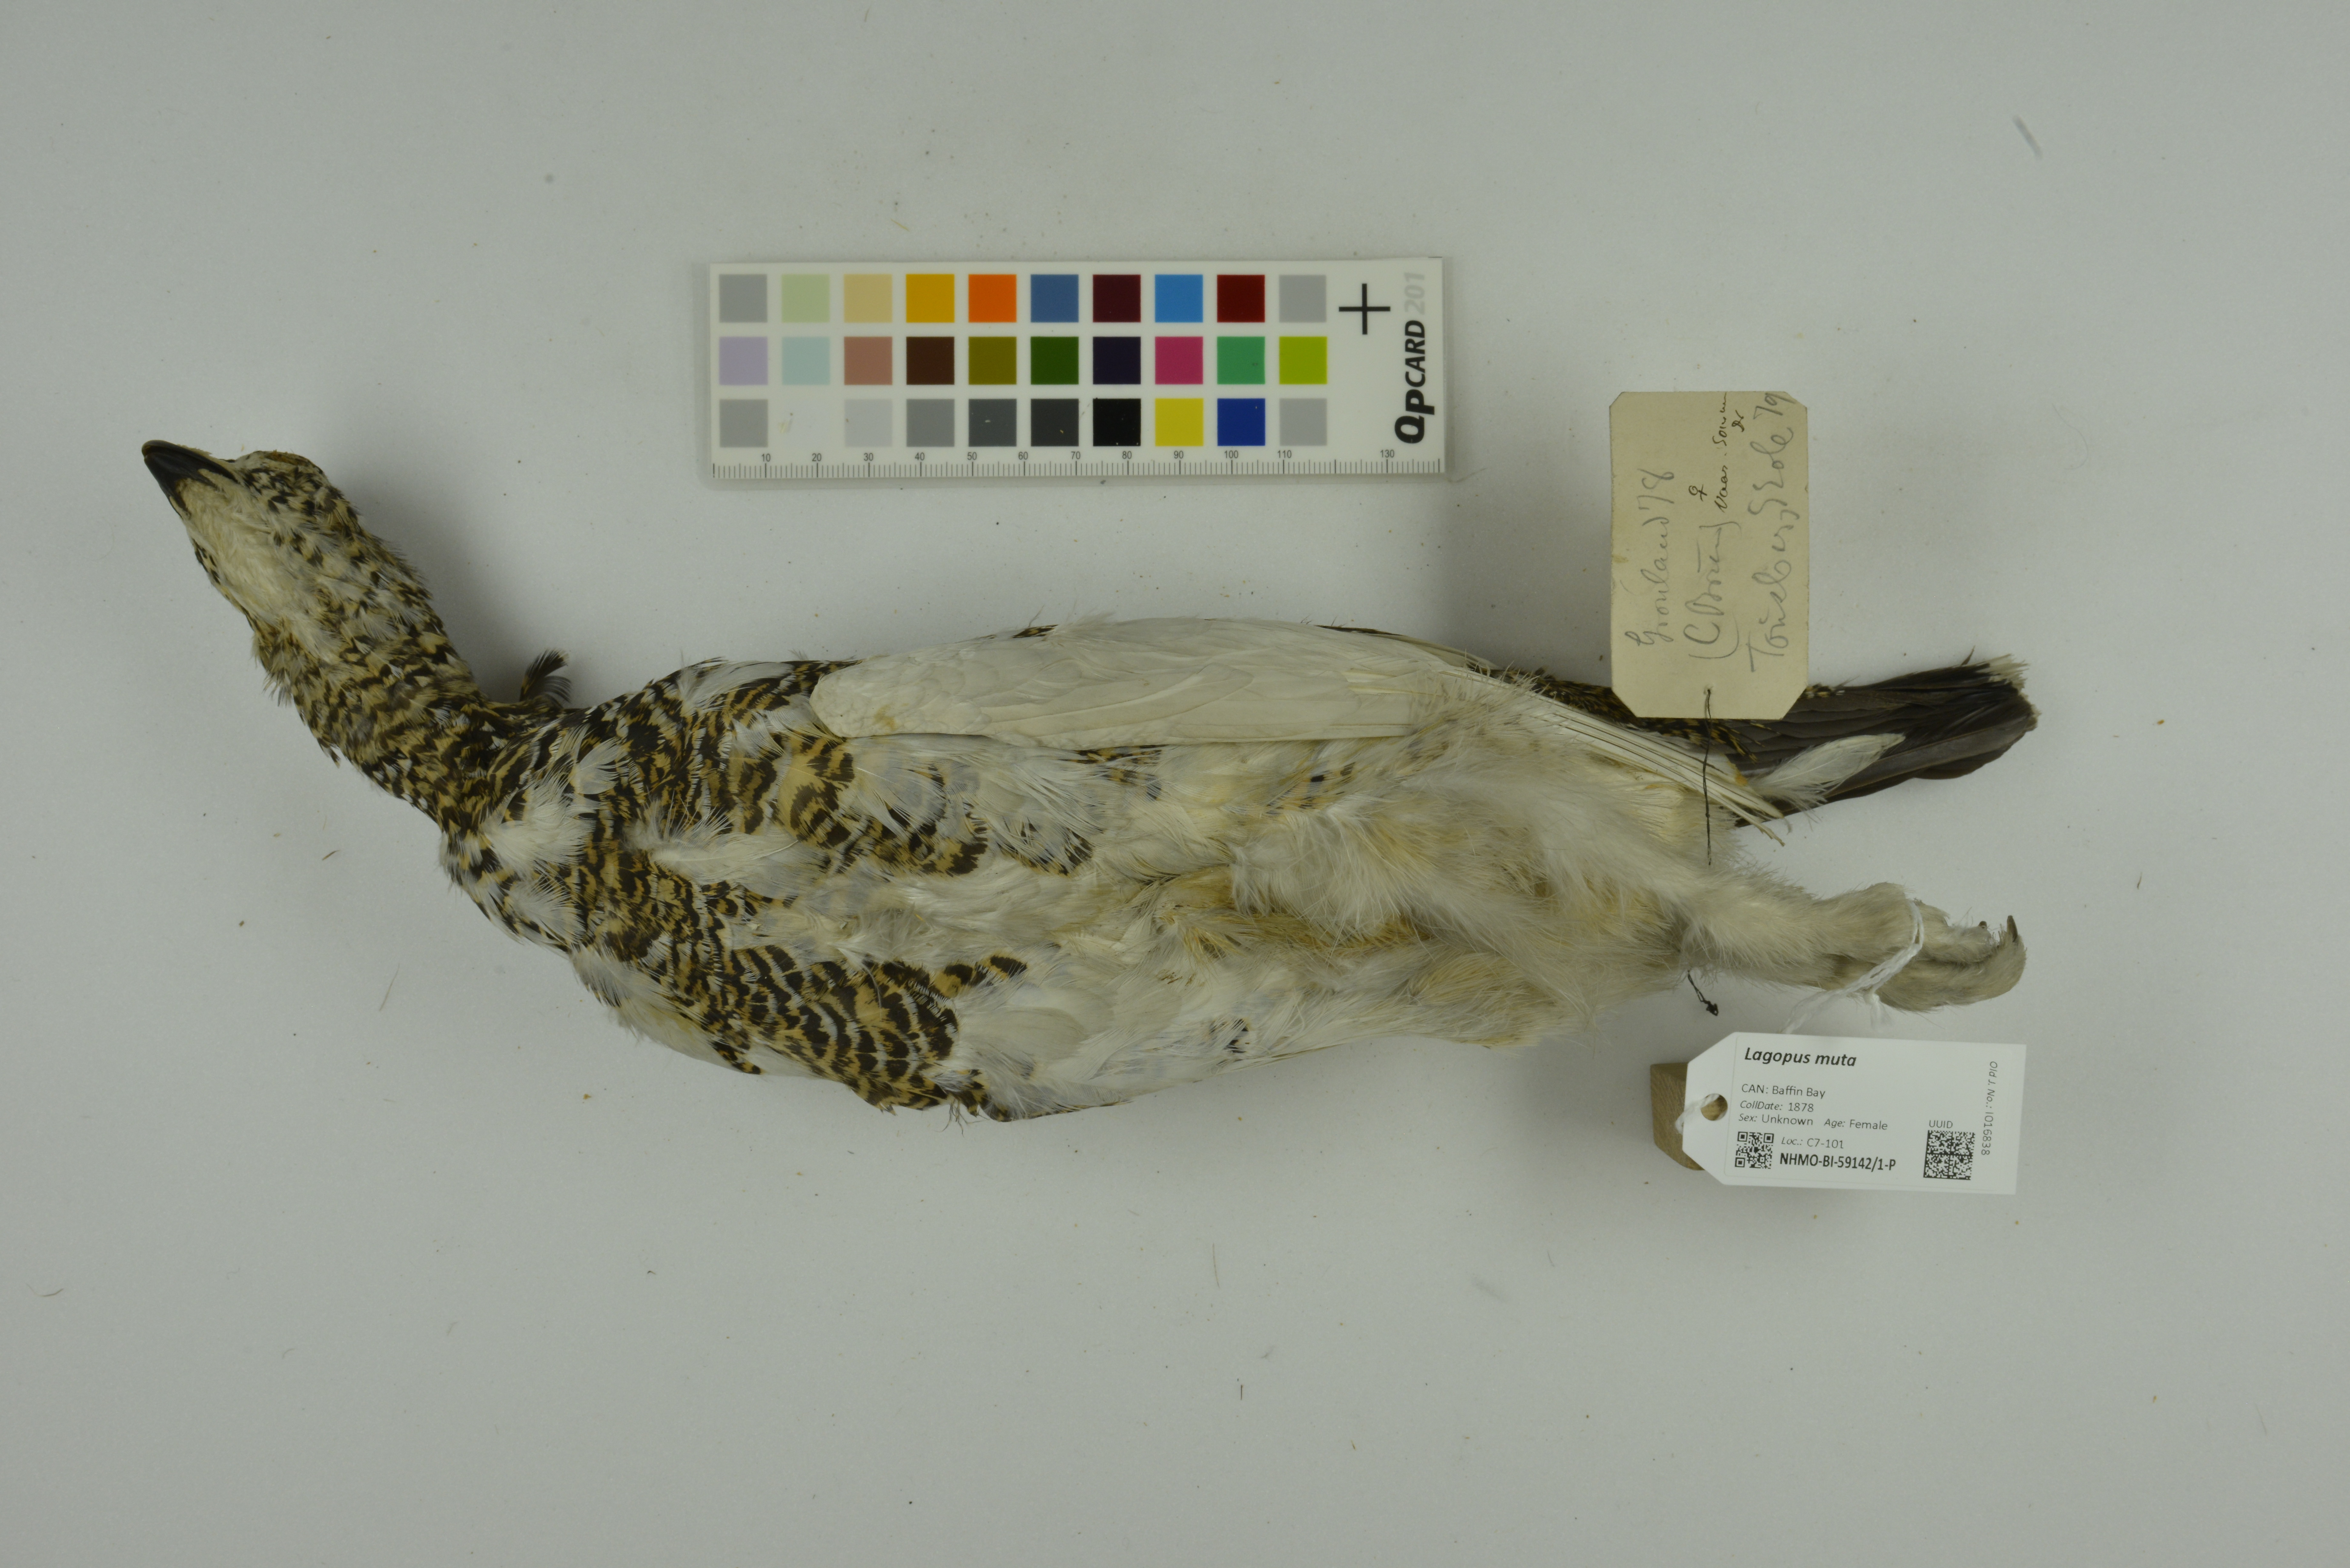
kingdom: Animalia
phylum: Chordata
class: Aves
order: Galliformes
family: Phasianidae
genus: Lagopus
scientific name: Lagopus muta
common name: Rock ptarmigan
